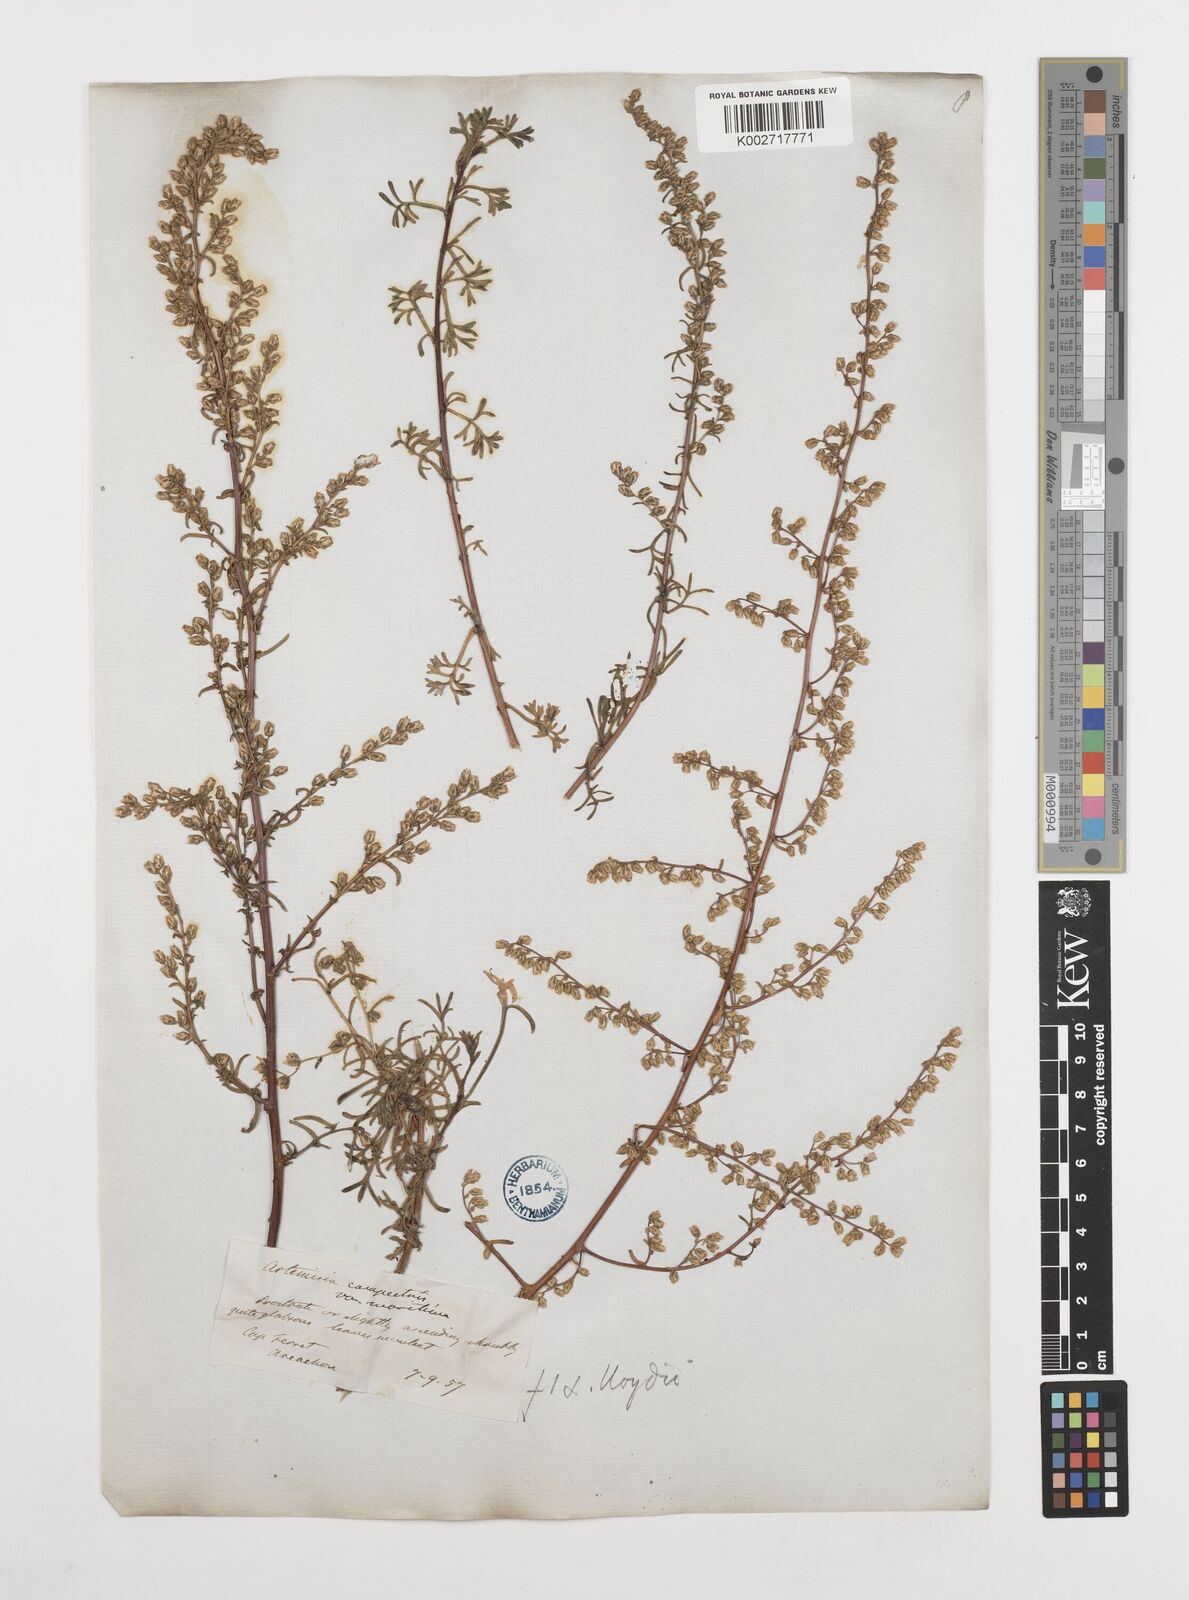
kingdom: Plantae
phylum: Tracheophyta
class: Magnoliopsida
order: Asterales
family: Asteraceae
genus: Artemisia
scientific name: Artemisia campestris
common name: Field wormwood
